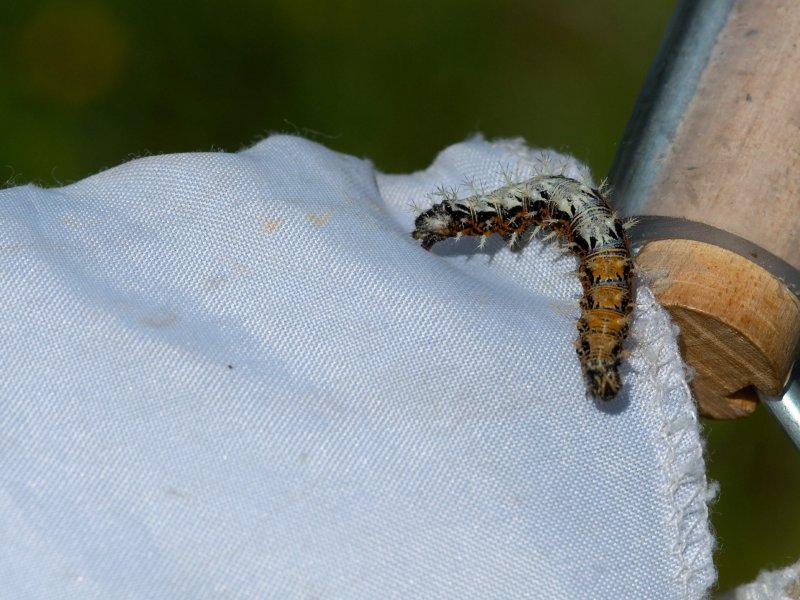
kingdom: Animalia
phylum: Arthropoda
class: Insecta
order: Lepidoptera
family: Nymphalidae
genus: Polygonia
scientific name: Polygonia faunus
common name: Green Comma
